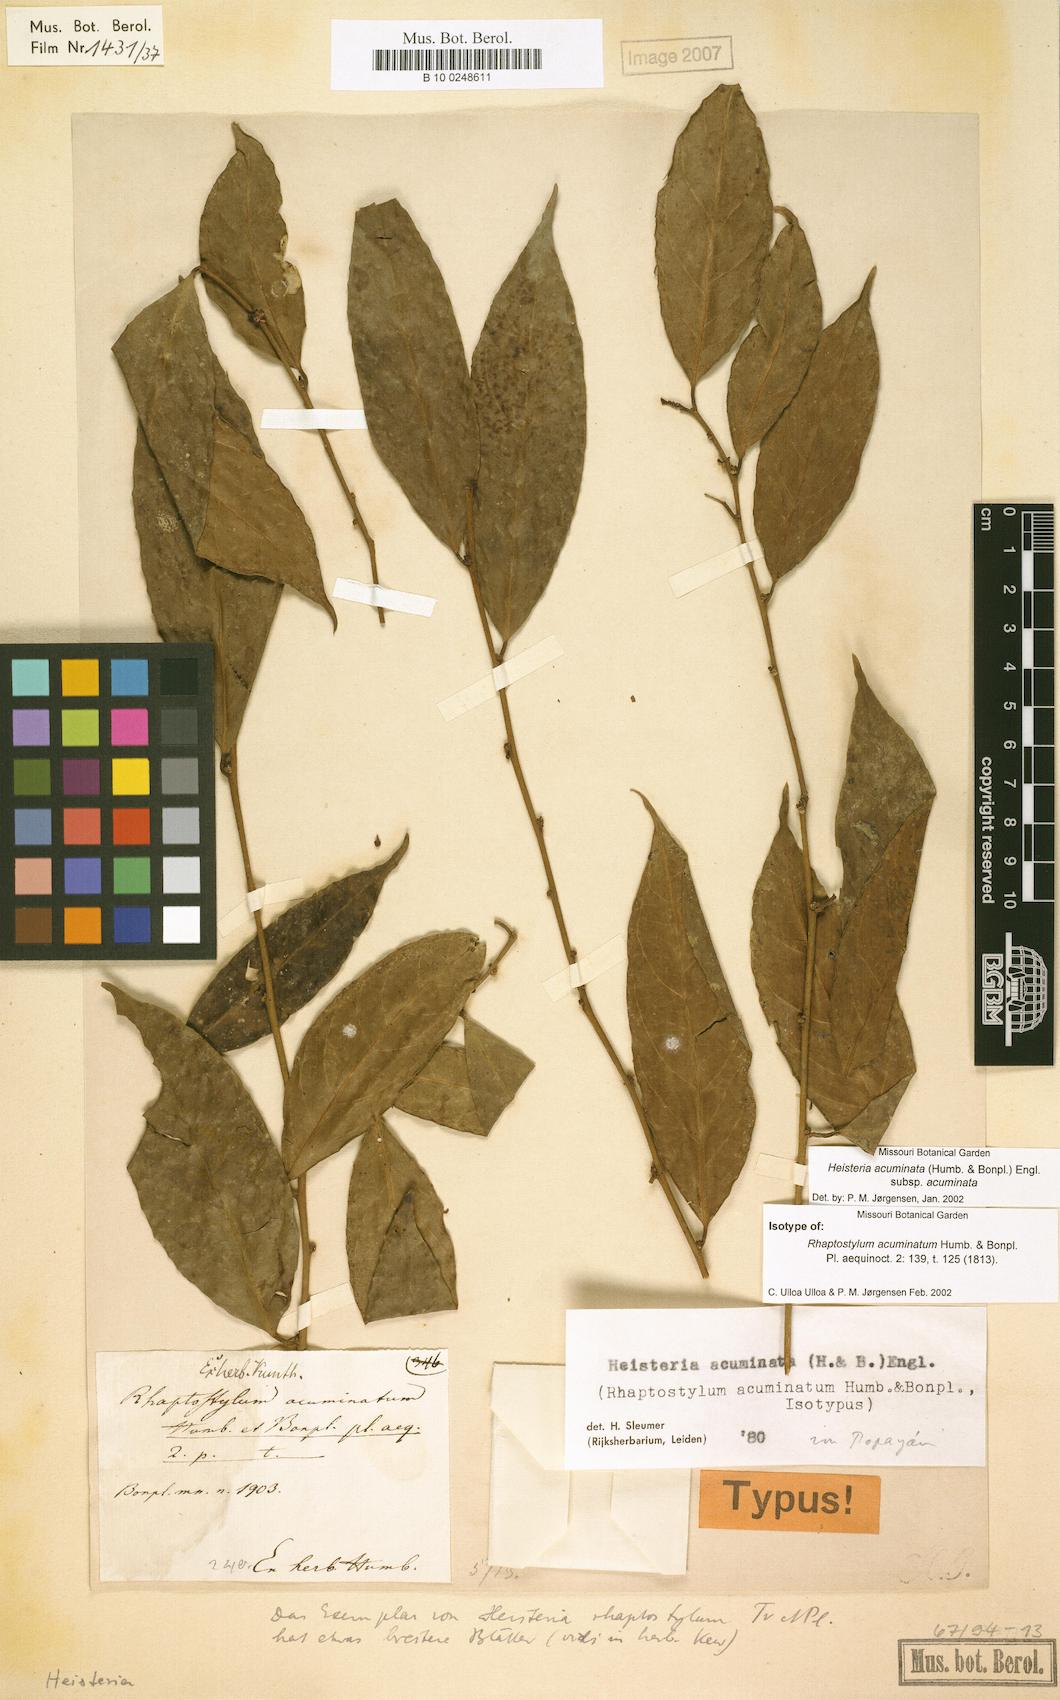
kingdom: Plantae
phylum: Tracheophyta
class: Magnoliopsida
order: Santalales
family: Erythropalaceae
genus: Heisteria
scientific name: Heisteria acuminata
